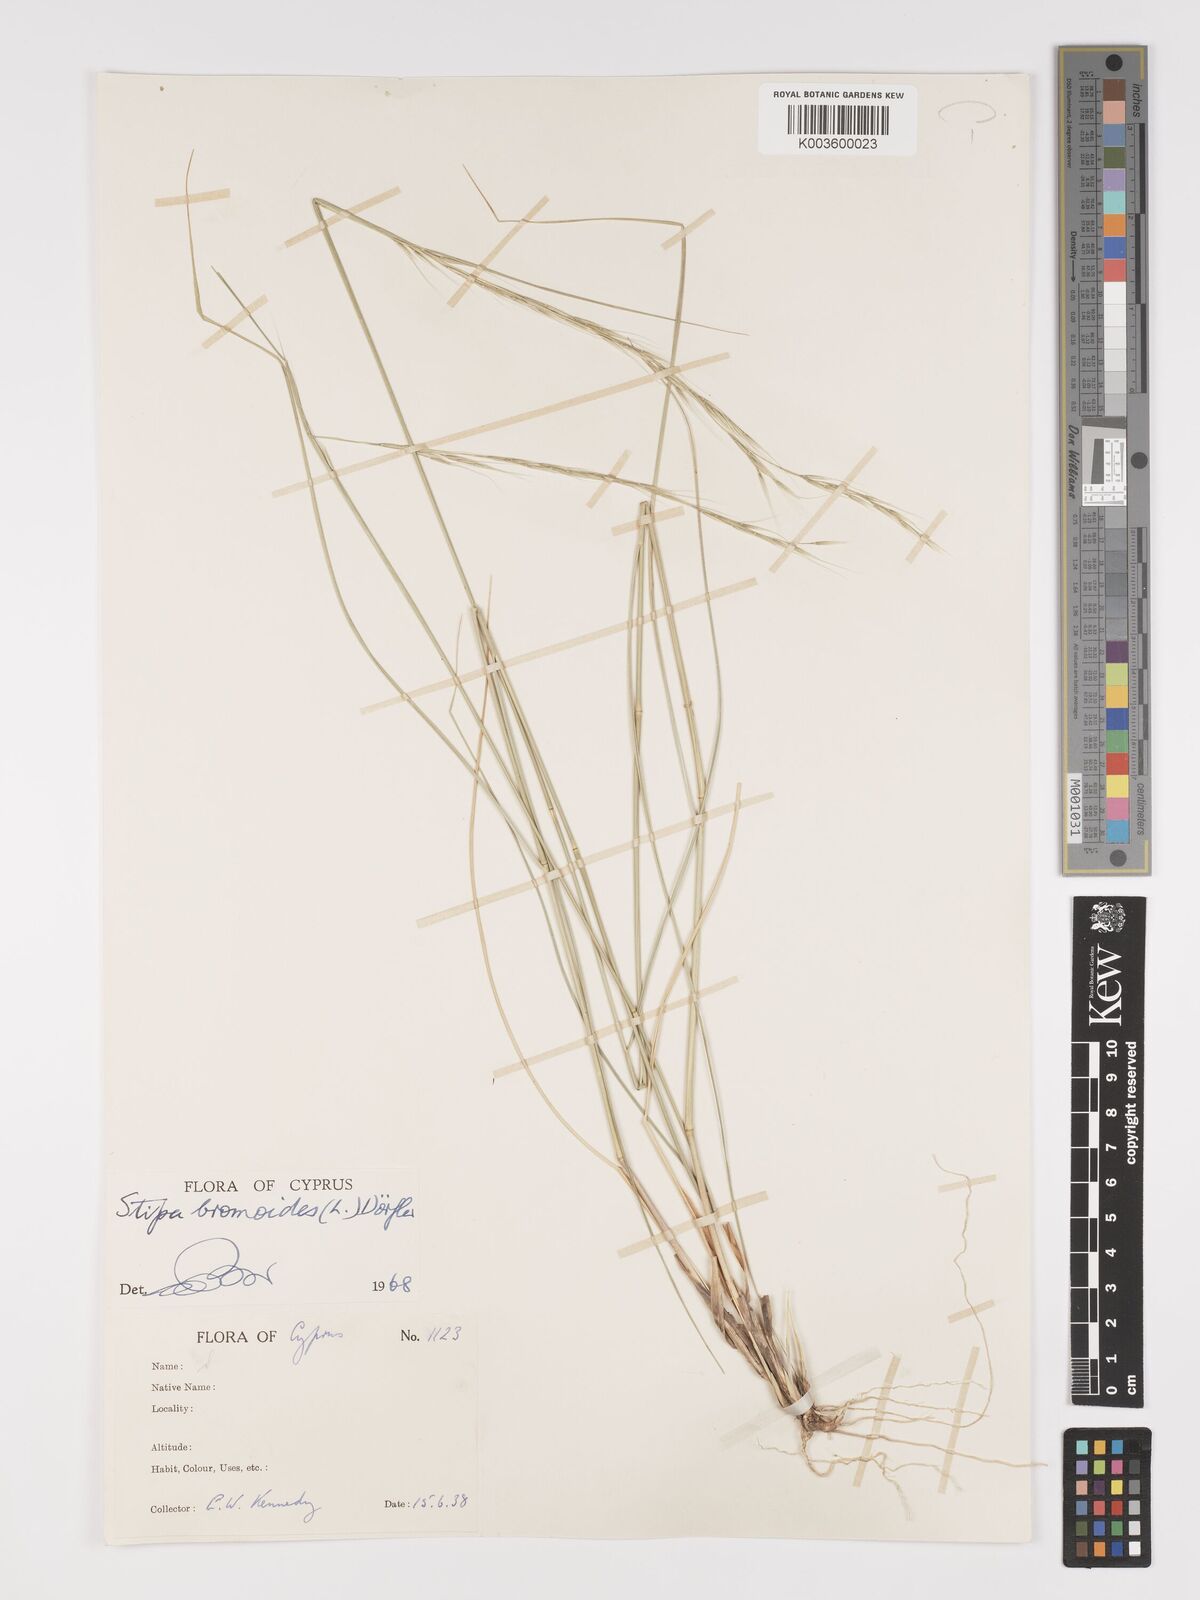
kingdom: Plantae
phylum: Tracheophyta
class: Liliopsida
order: Poales
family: Poaceae
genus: Achnatherum
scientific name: Achnatherum bromoides
